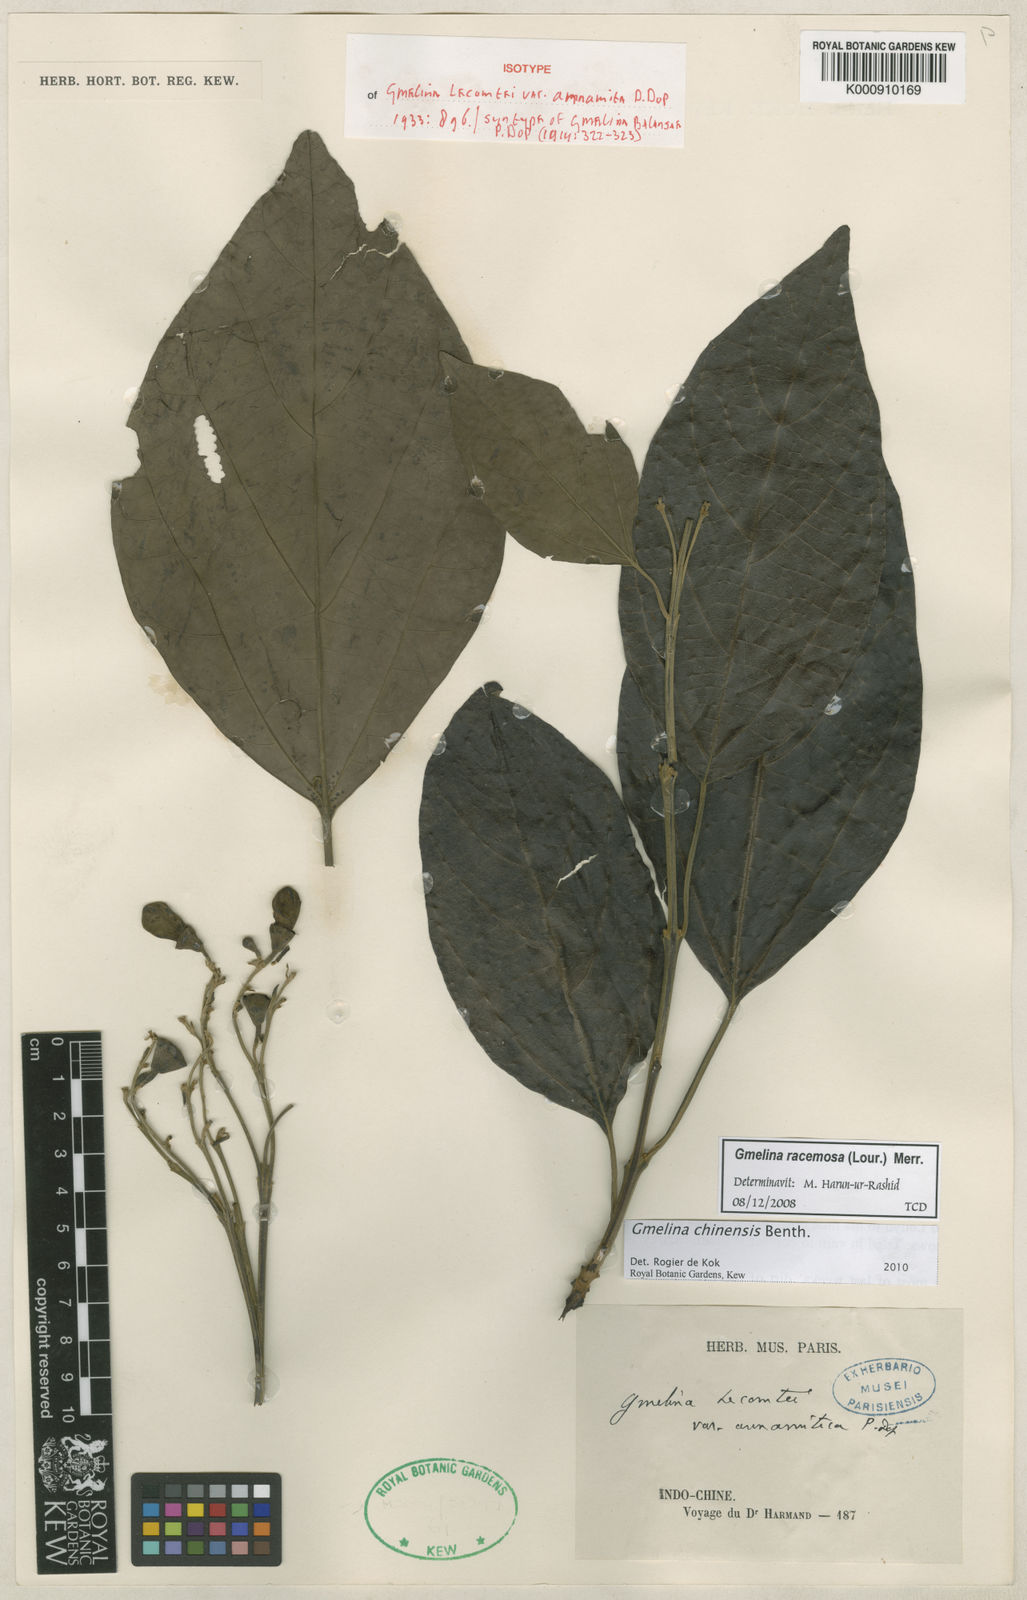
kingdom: Plantae
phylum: Tracheophyta
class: Magnoliopsida
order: Lamiales
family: Lamiaceae
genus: Gmelina
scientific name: Gmelina chinensis
